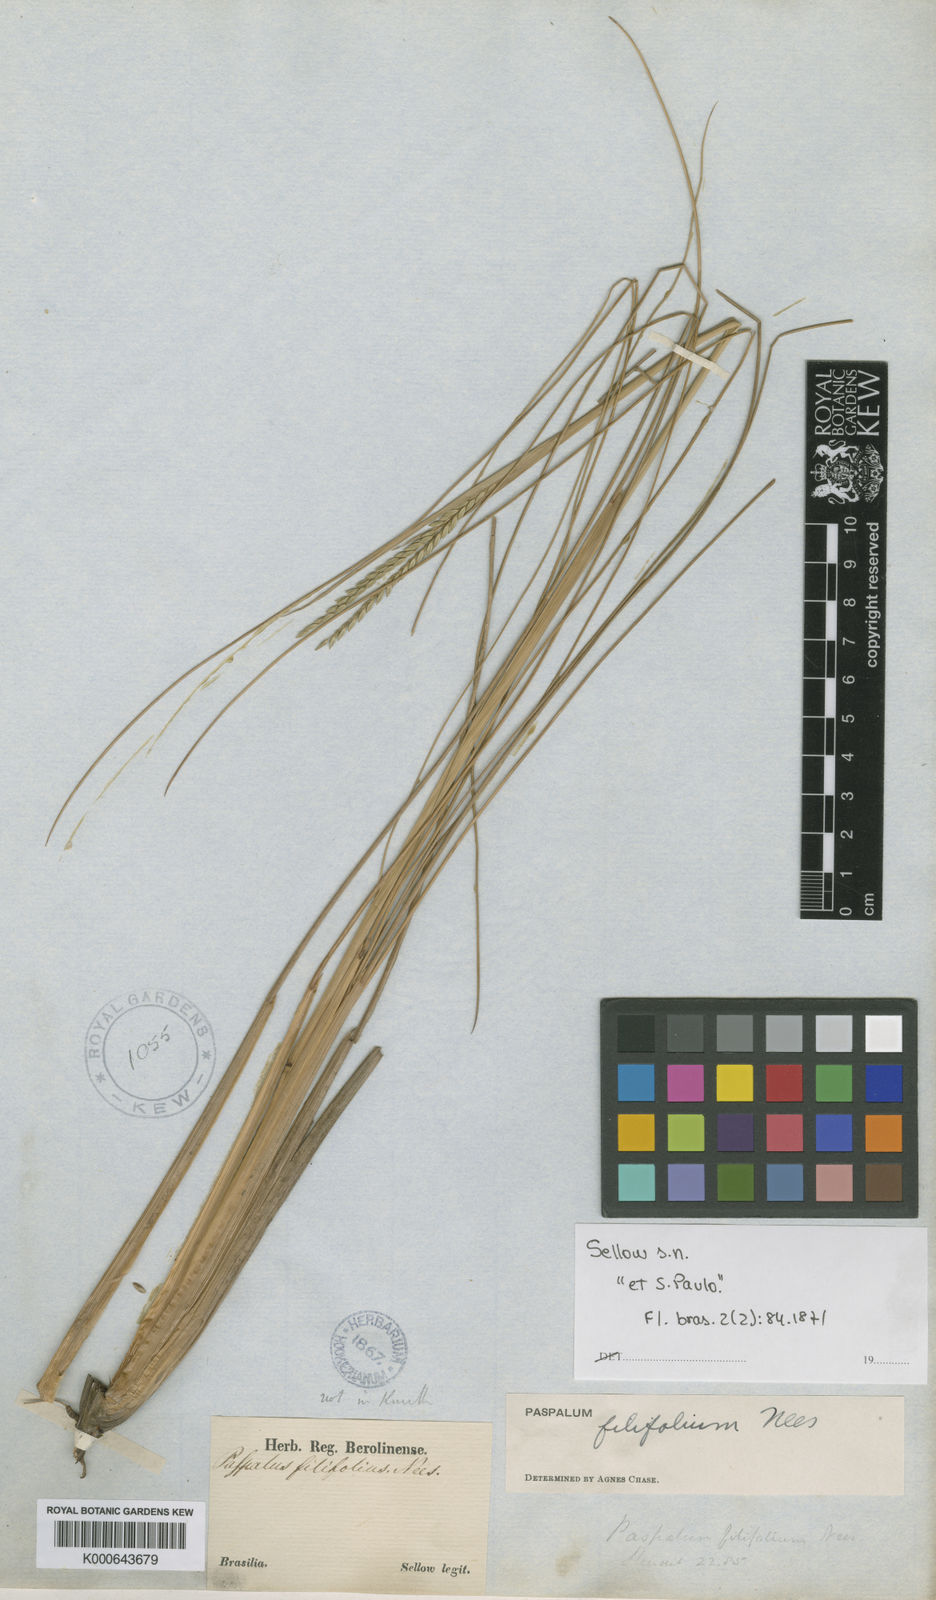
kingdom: Plantae
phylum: Tracheophyta
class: Liliopsida
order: Poales
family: Poaceae
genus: Paspalum
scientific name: Paspalum filifolium
